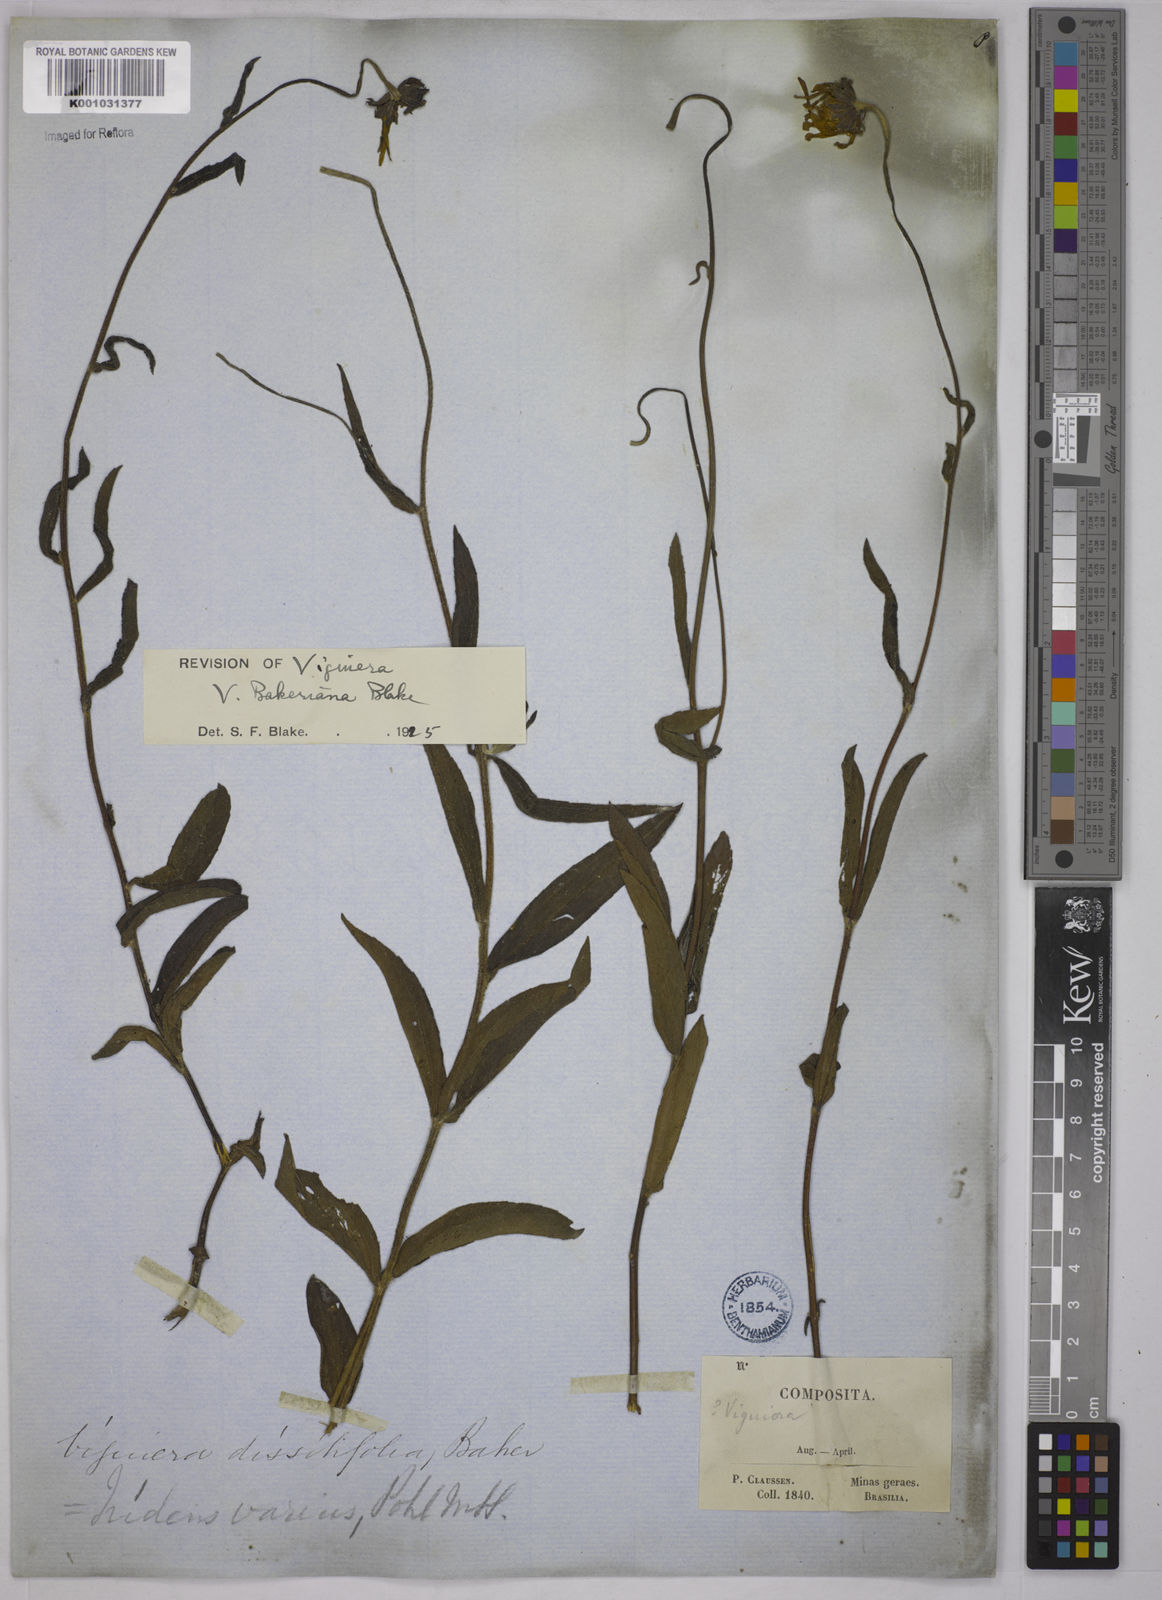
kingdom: Plantae
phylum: Tracheophyta
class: Magnoliopsida
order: Asterales
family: Asteraceae
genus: Aldama
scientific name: Aldama bakeriana
